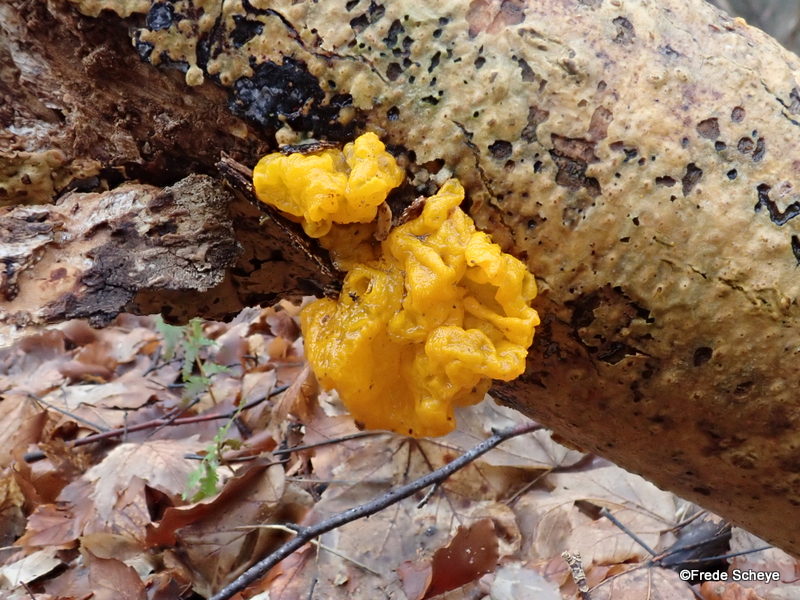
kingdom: Fungi
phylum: Basidiomycota
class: Tremellomycetes
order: Tremellales
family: Tremellaceae
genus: Tremella
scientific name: Tremella mesenterica
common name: gul bævresvamp
